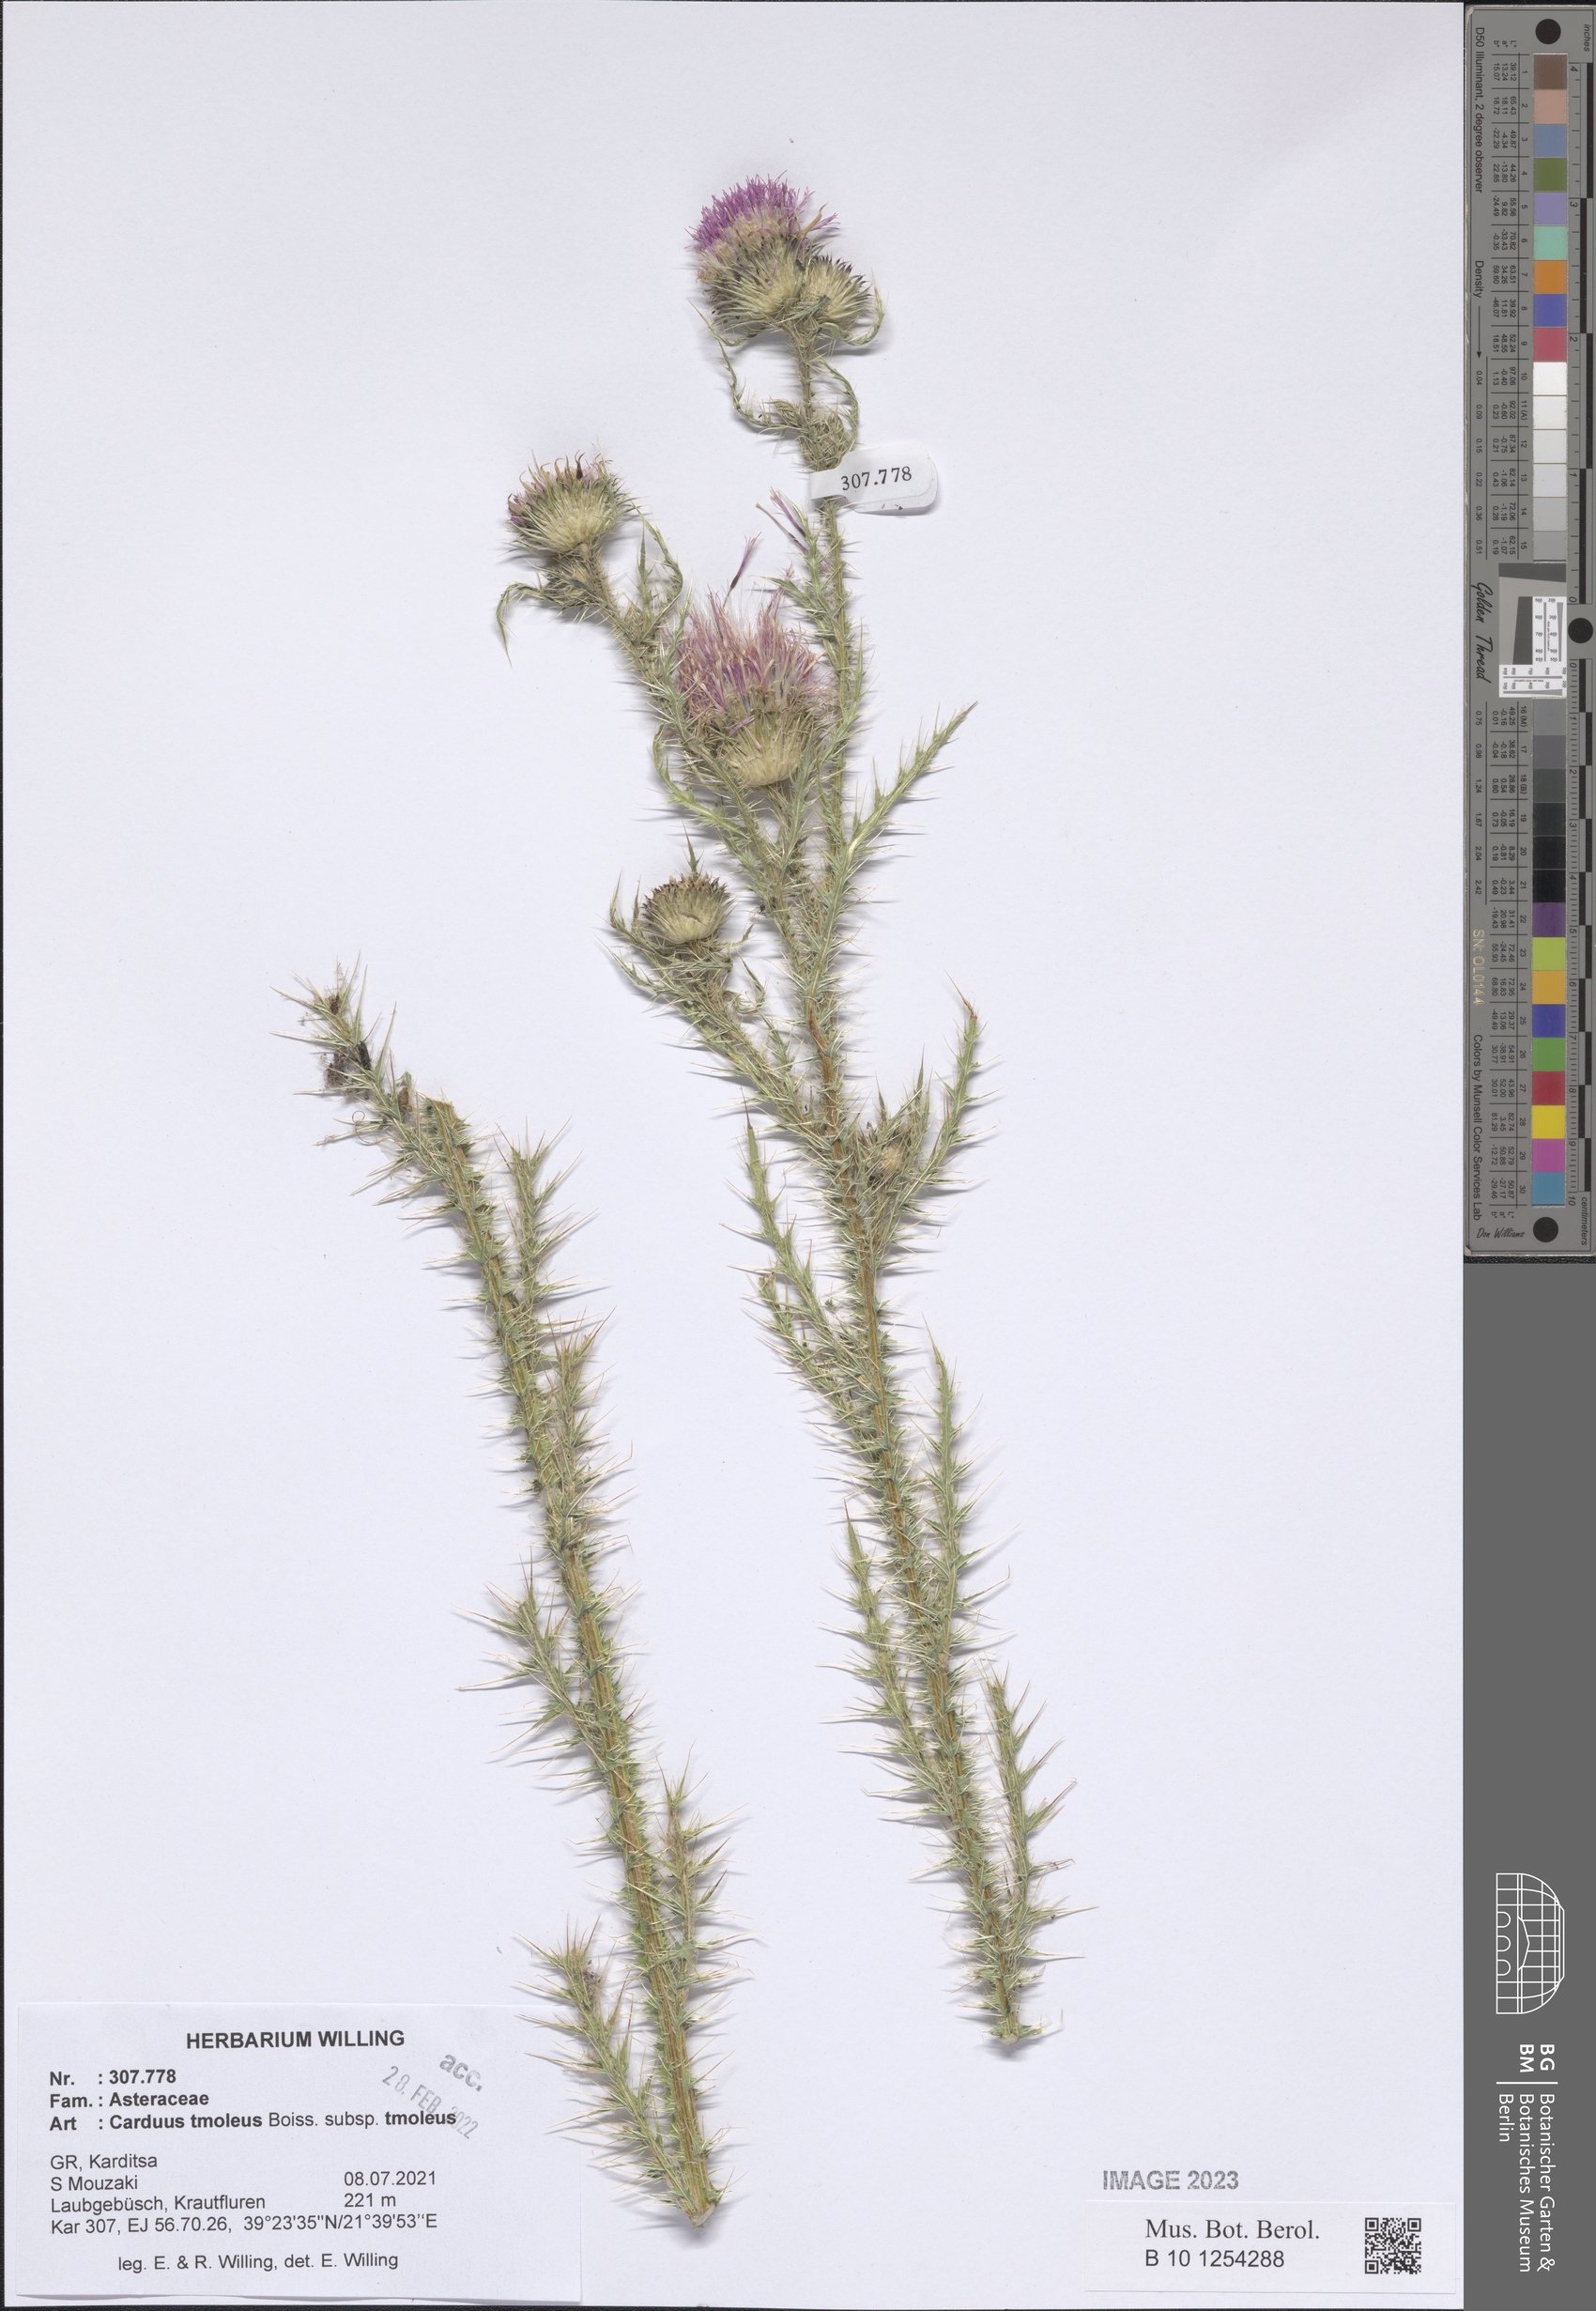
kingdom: Plantae
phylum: Tracheophyta
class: Magnoliopsida
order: Asterales
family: Asteraceae
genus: Carduus
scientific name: Carduus tmoleus
